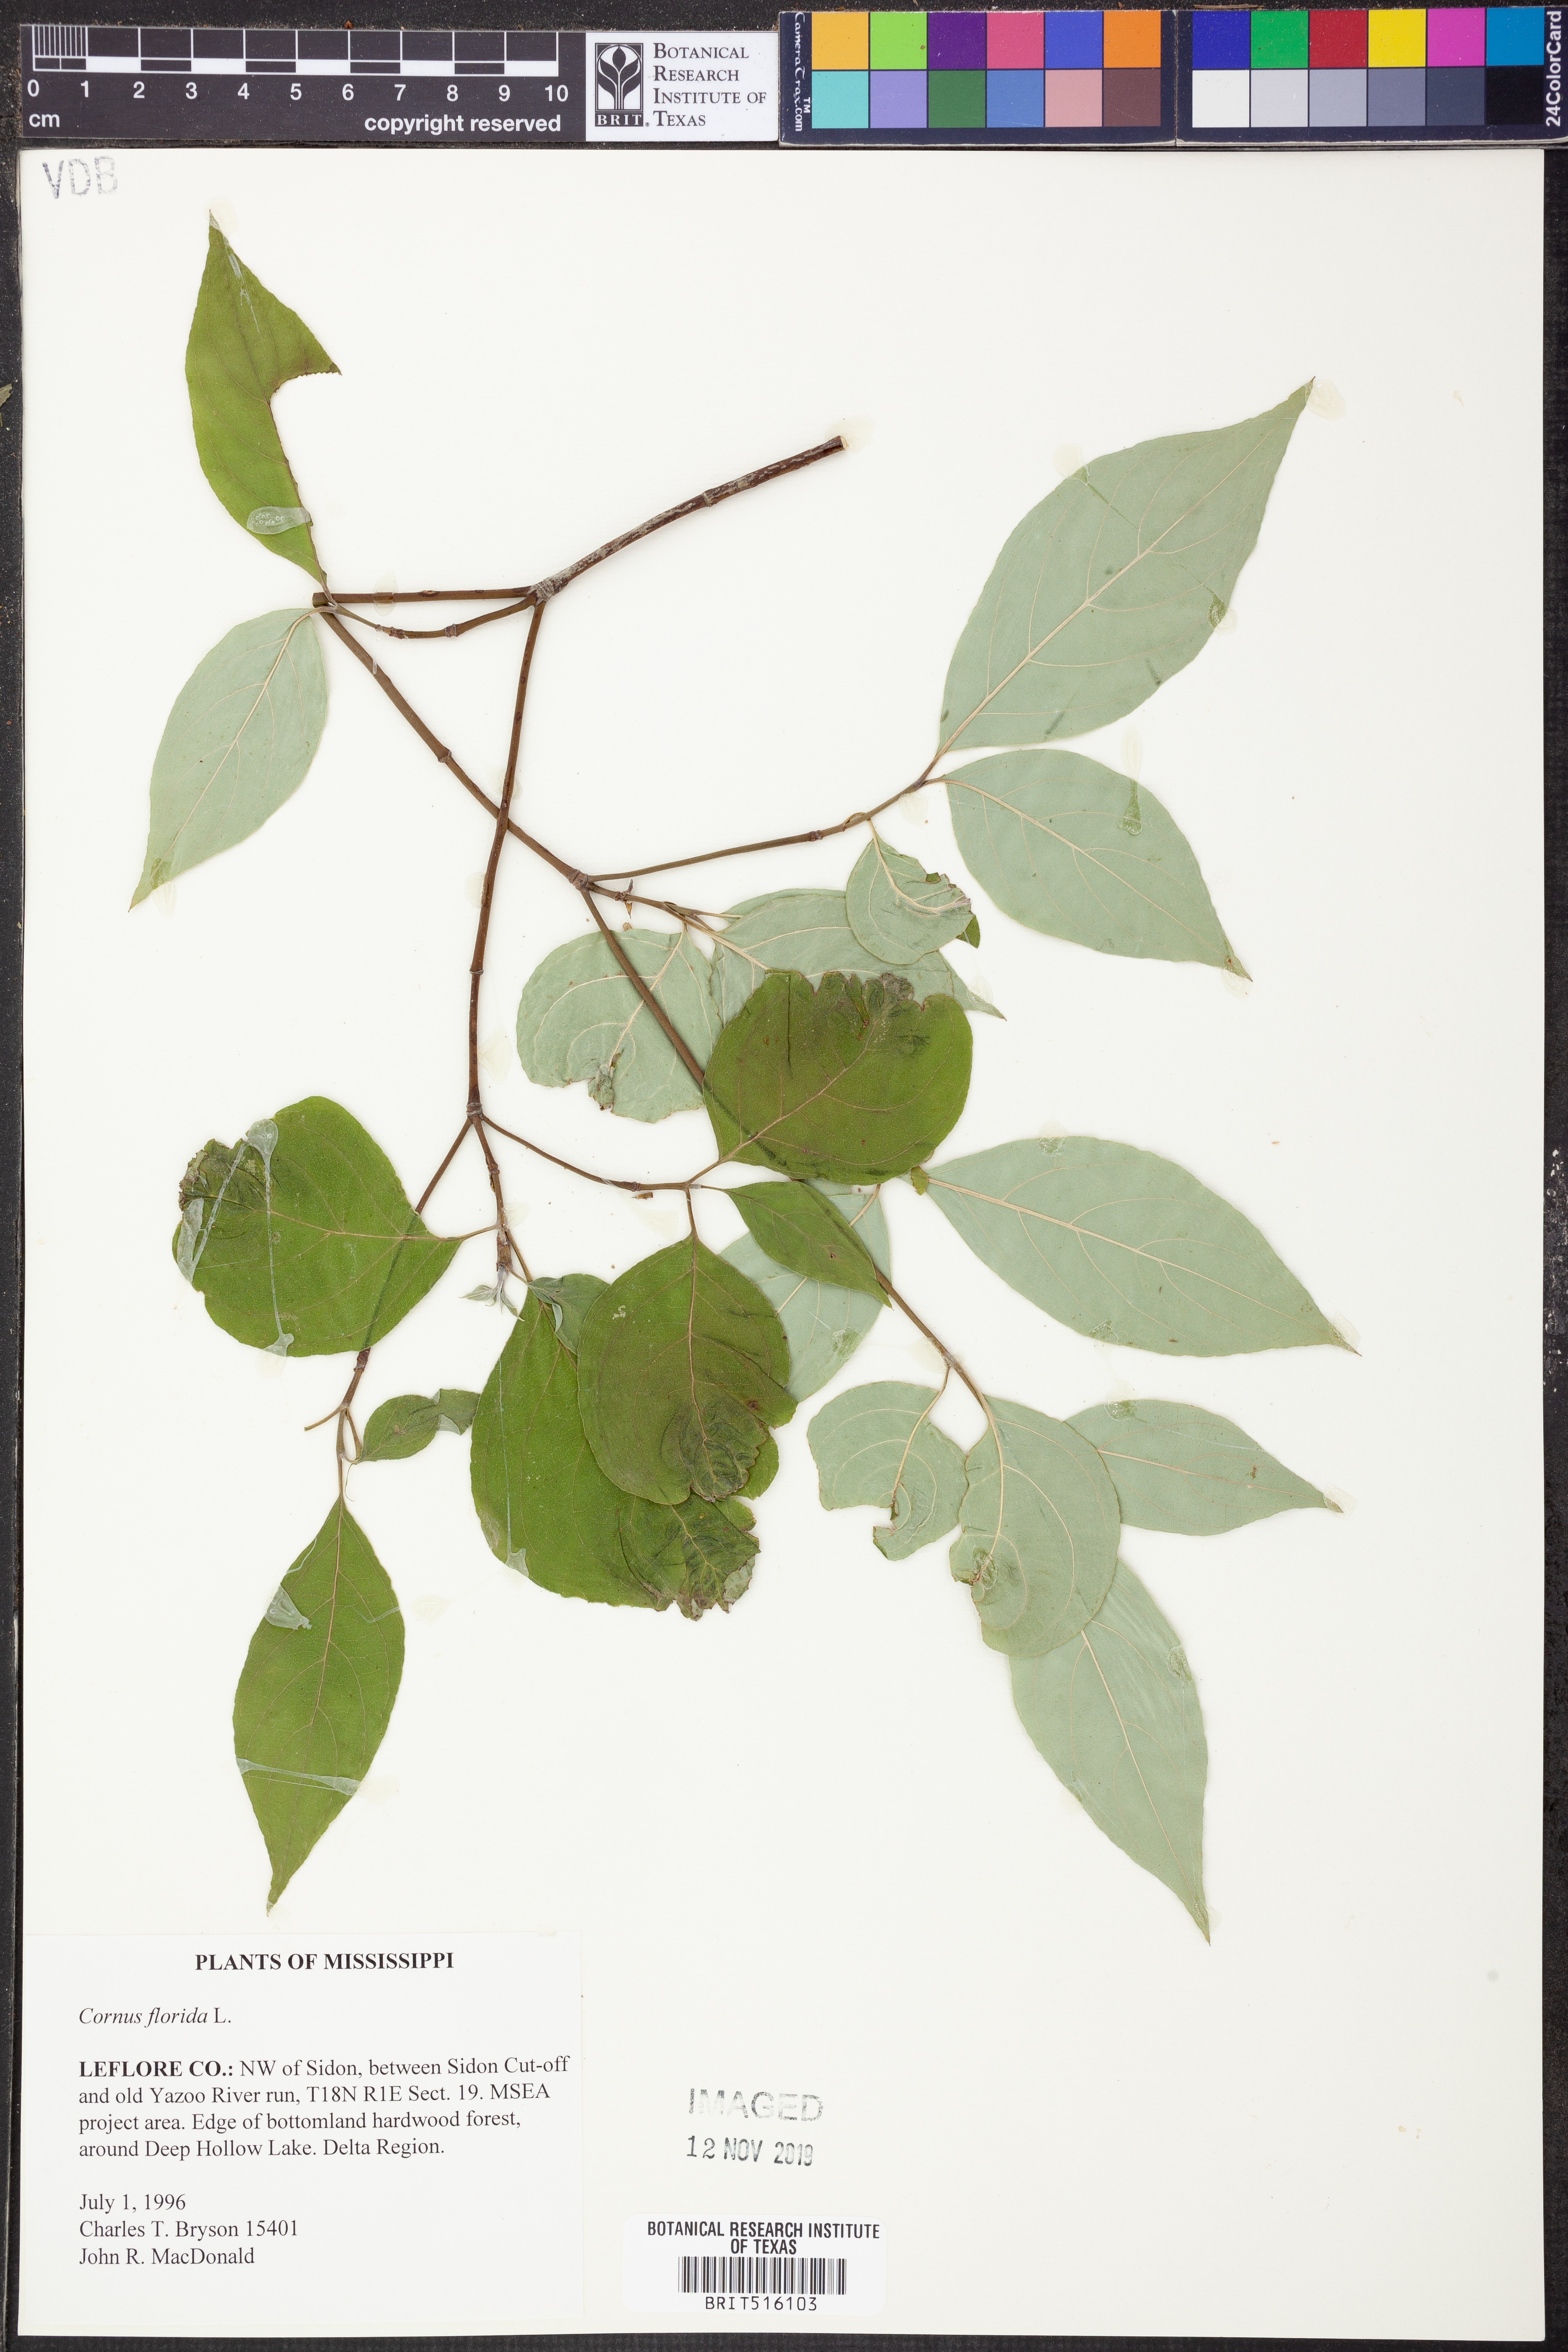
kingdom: Plantae
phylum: Tracheophyta
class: Magnoliopsida
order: Cornales
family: Cornaceae
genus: Cornus
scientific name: Cornus florida
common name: Flowering dogwood
